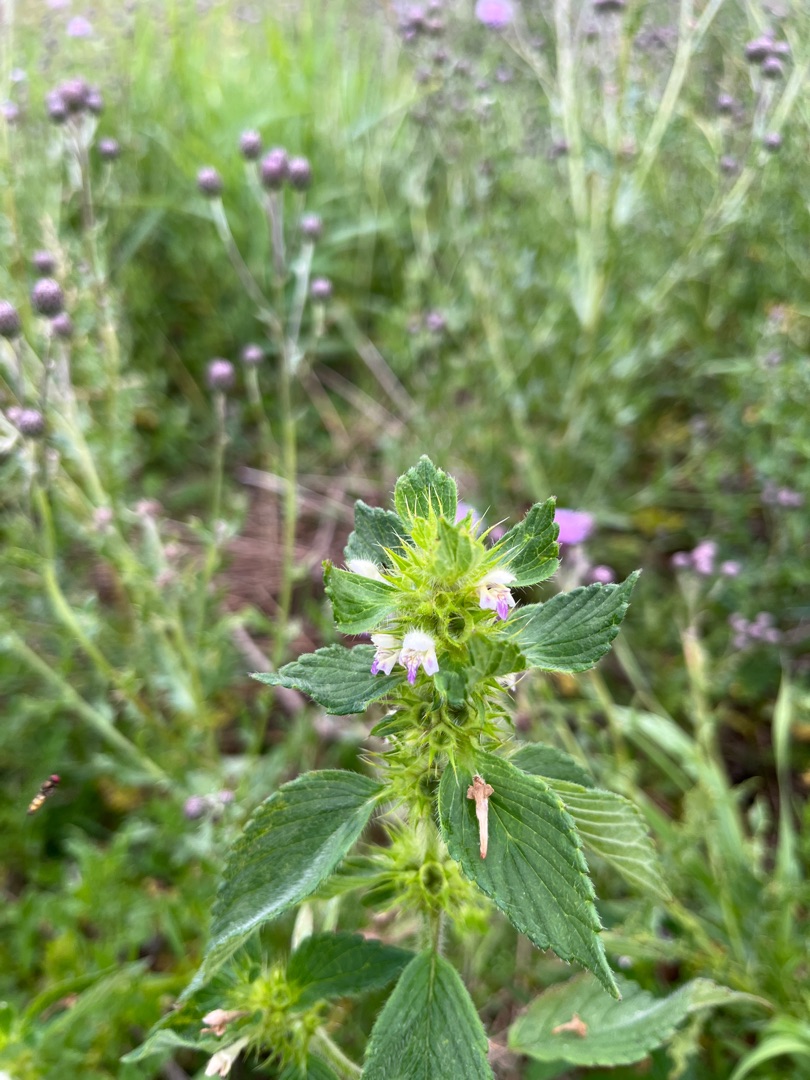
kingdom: Plantae
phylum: Tracheophyta
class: Magnoliopsida
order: Lamiales
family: Lamiaceae
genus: Galeopsis
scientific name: Galeopsis bifida
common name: Skov-hanekro
